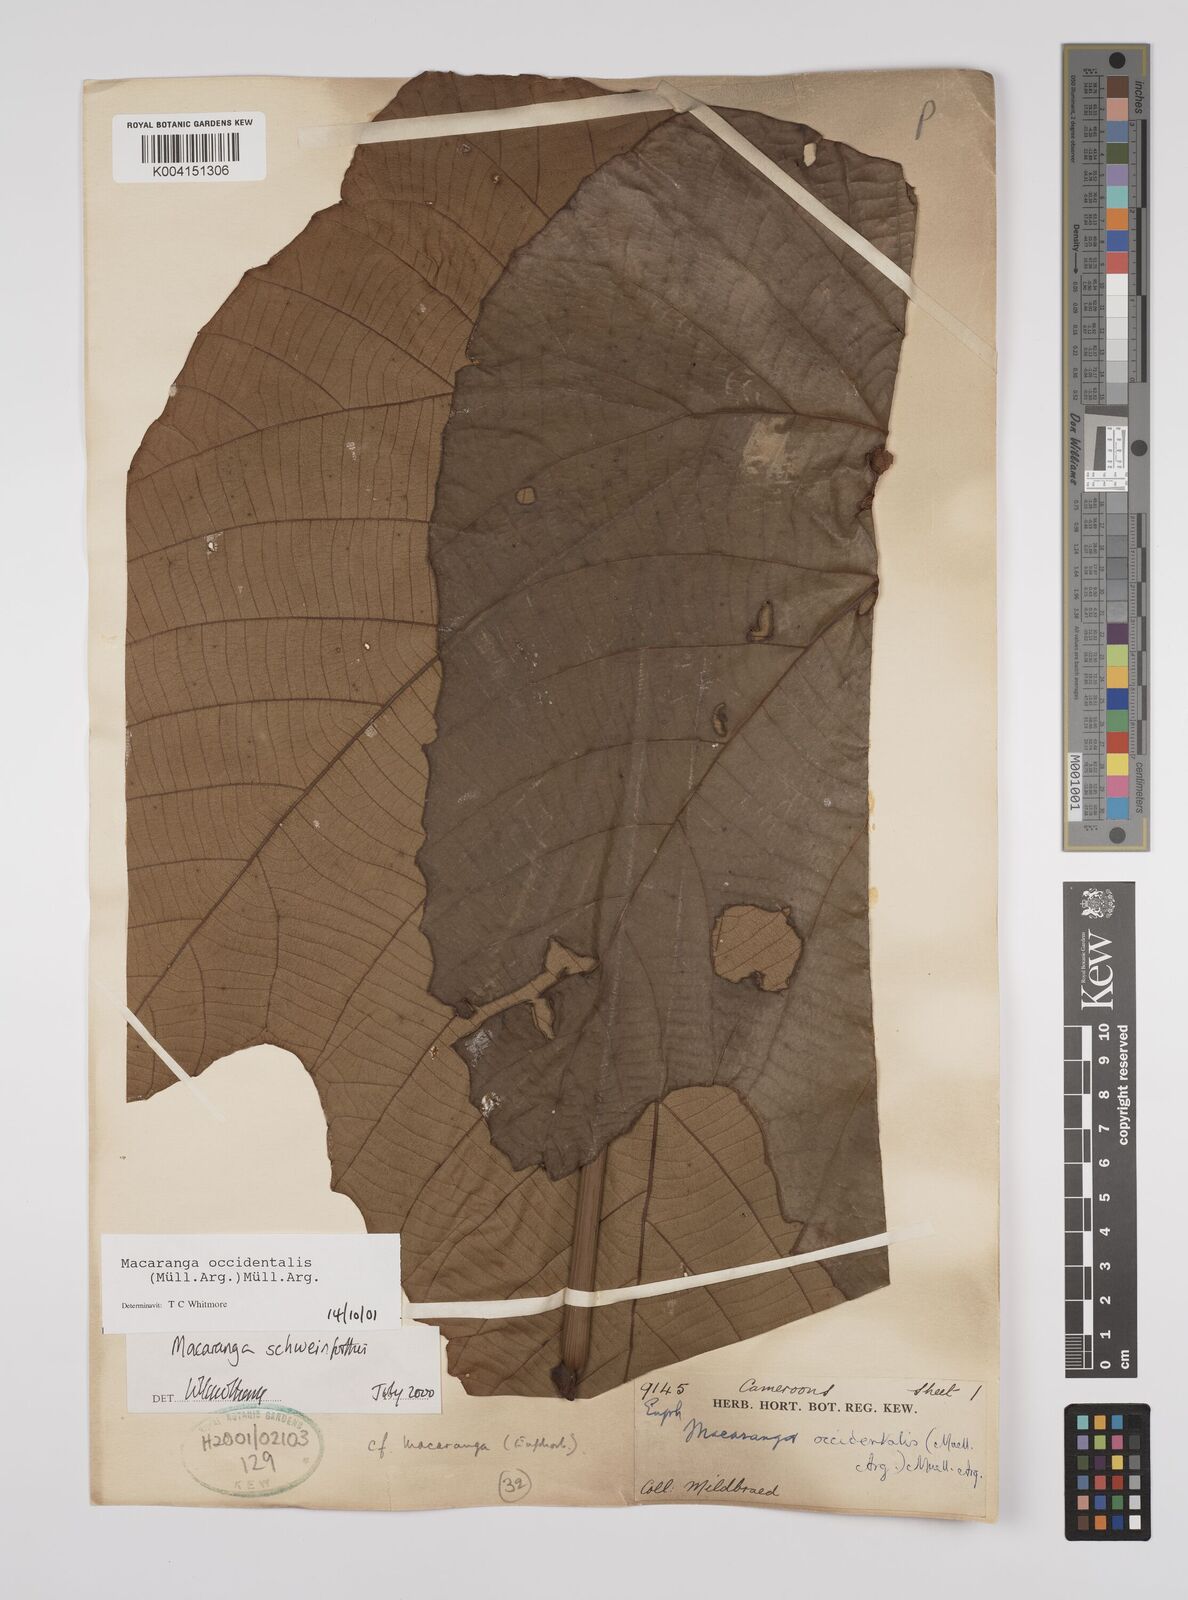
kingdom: Plantae
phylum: Tracheophyta
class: Magnoliopsida
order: Malpighiales
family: Euphorbiaceae
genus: Macaranga
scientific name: Macaranga occidentalis
